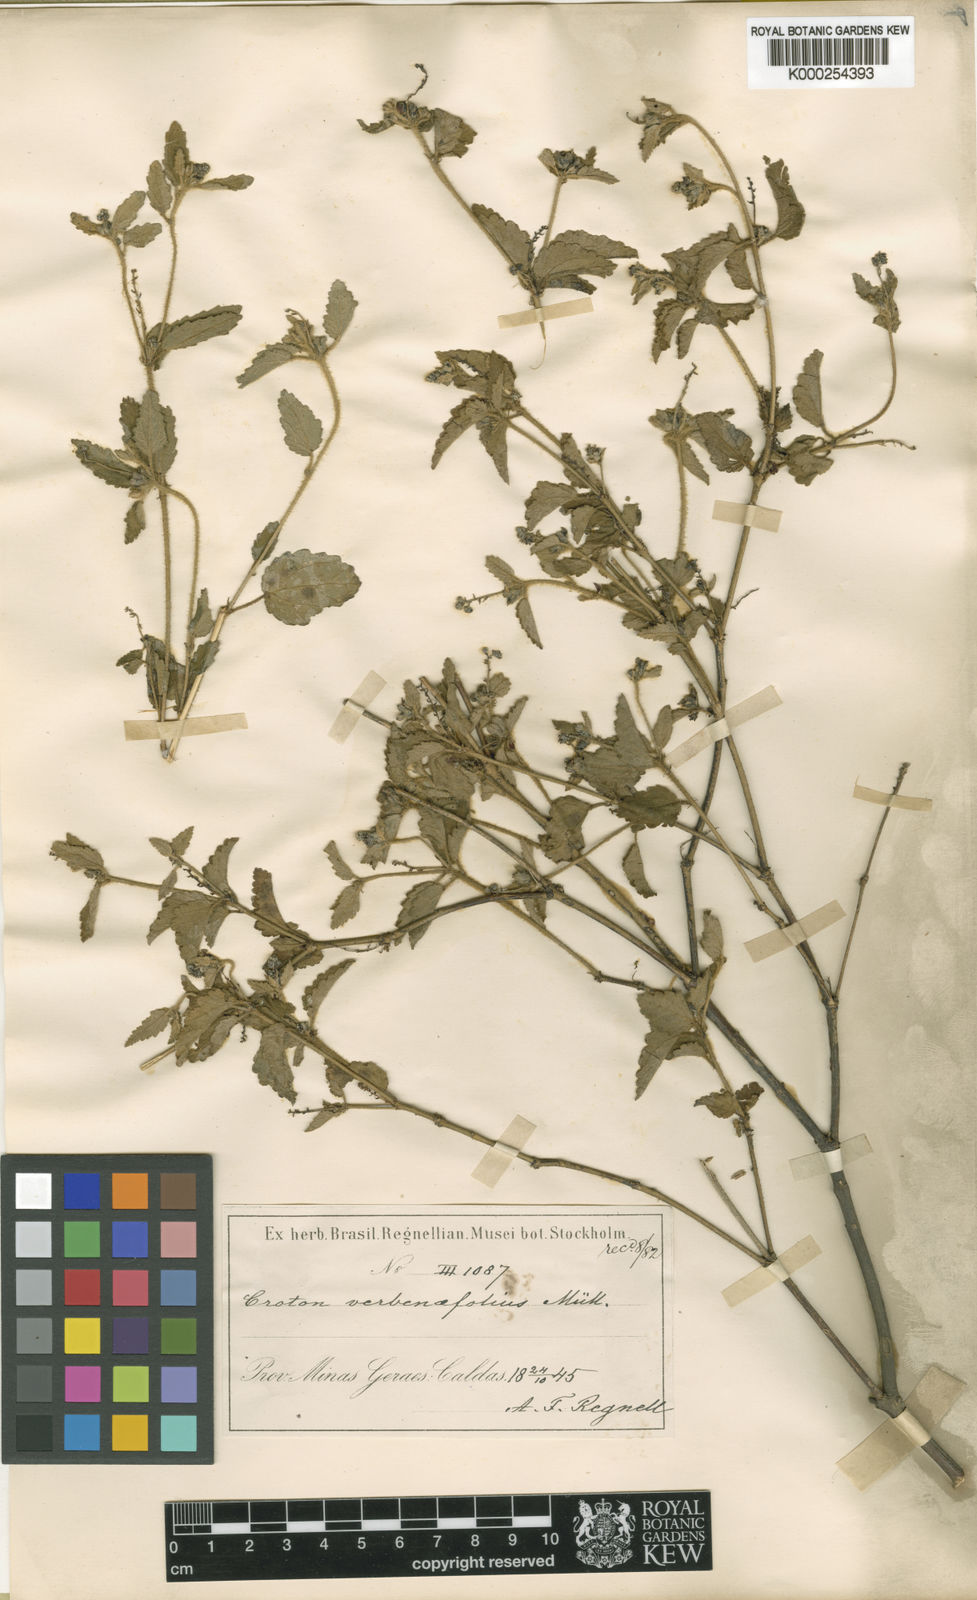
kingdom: Plantae
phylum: Tracheophyta
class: Magnoliopsida
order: Malpighiales
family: Euphorbiaceae
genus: Croton
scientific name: Croton
